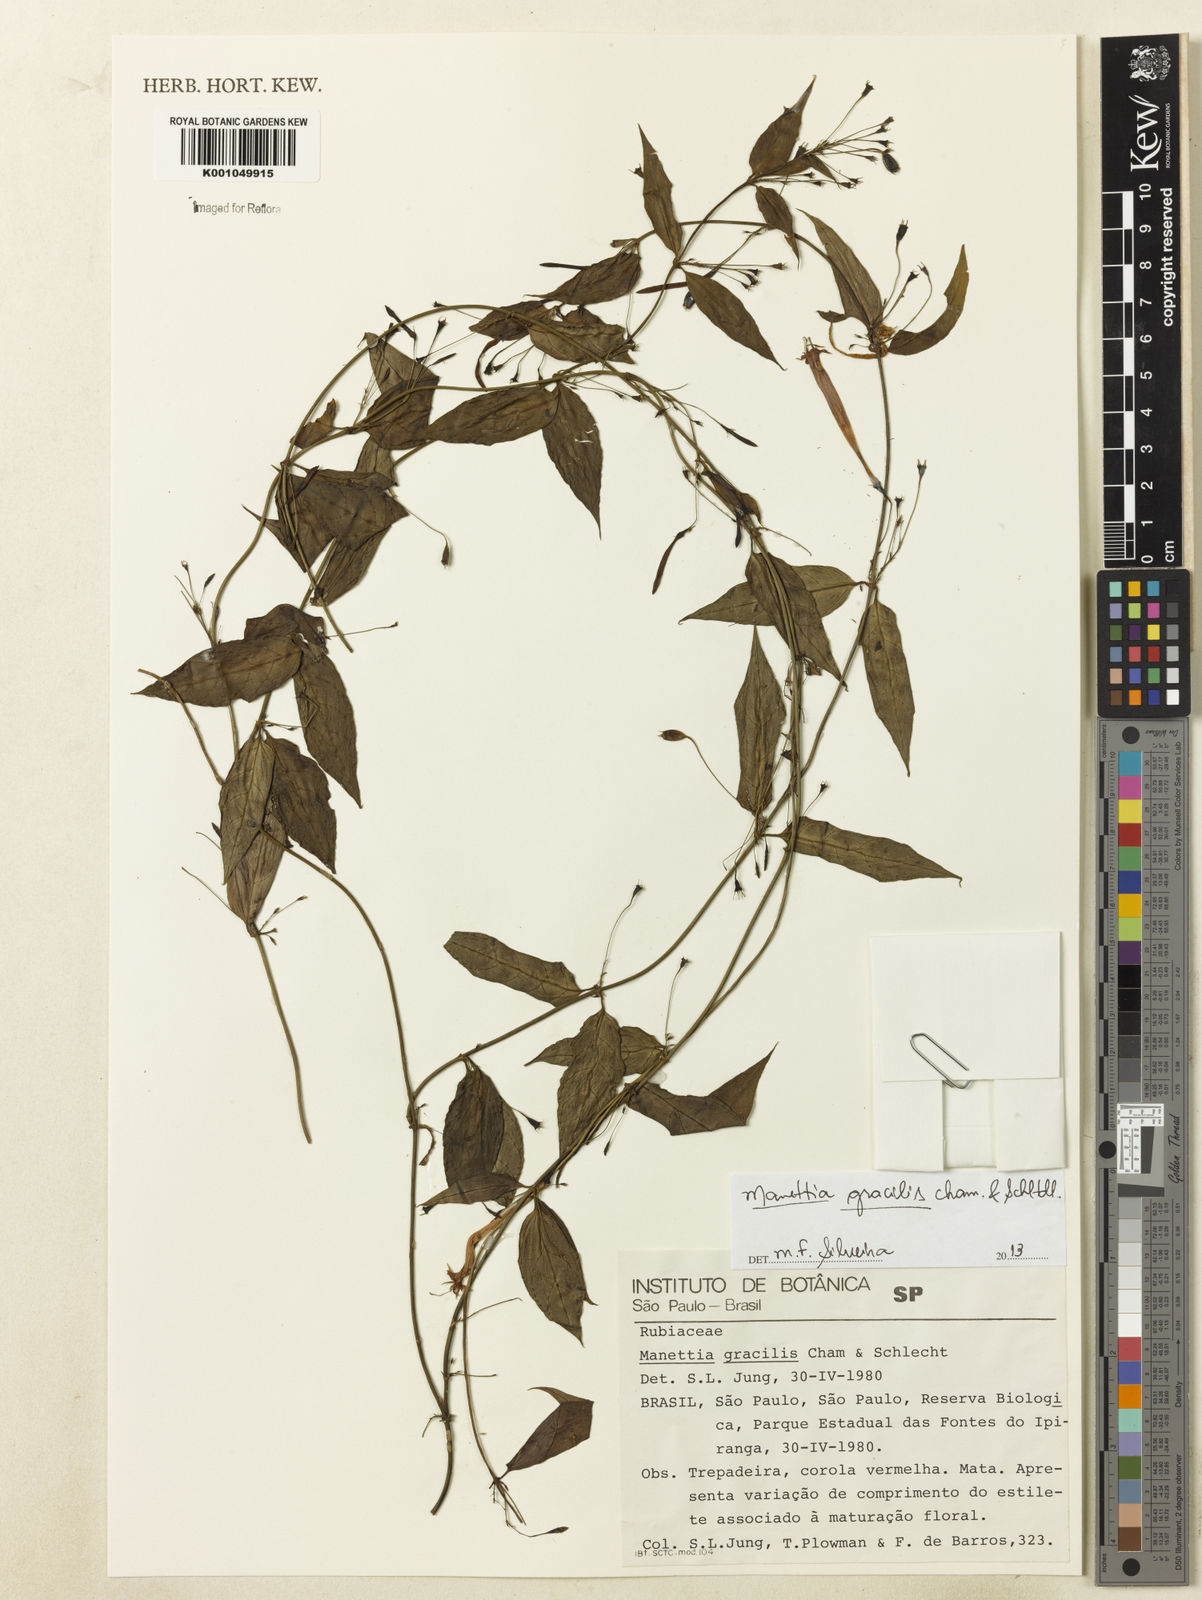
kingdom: Plantae
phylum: Tracheophyta
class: Magnoliopsida
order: Gentianales
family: Rubiaceae
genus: Manettia
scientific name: Manettia gracilis
